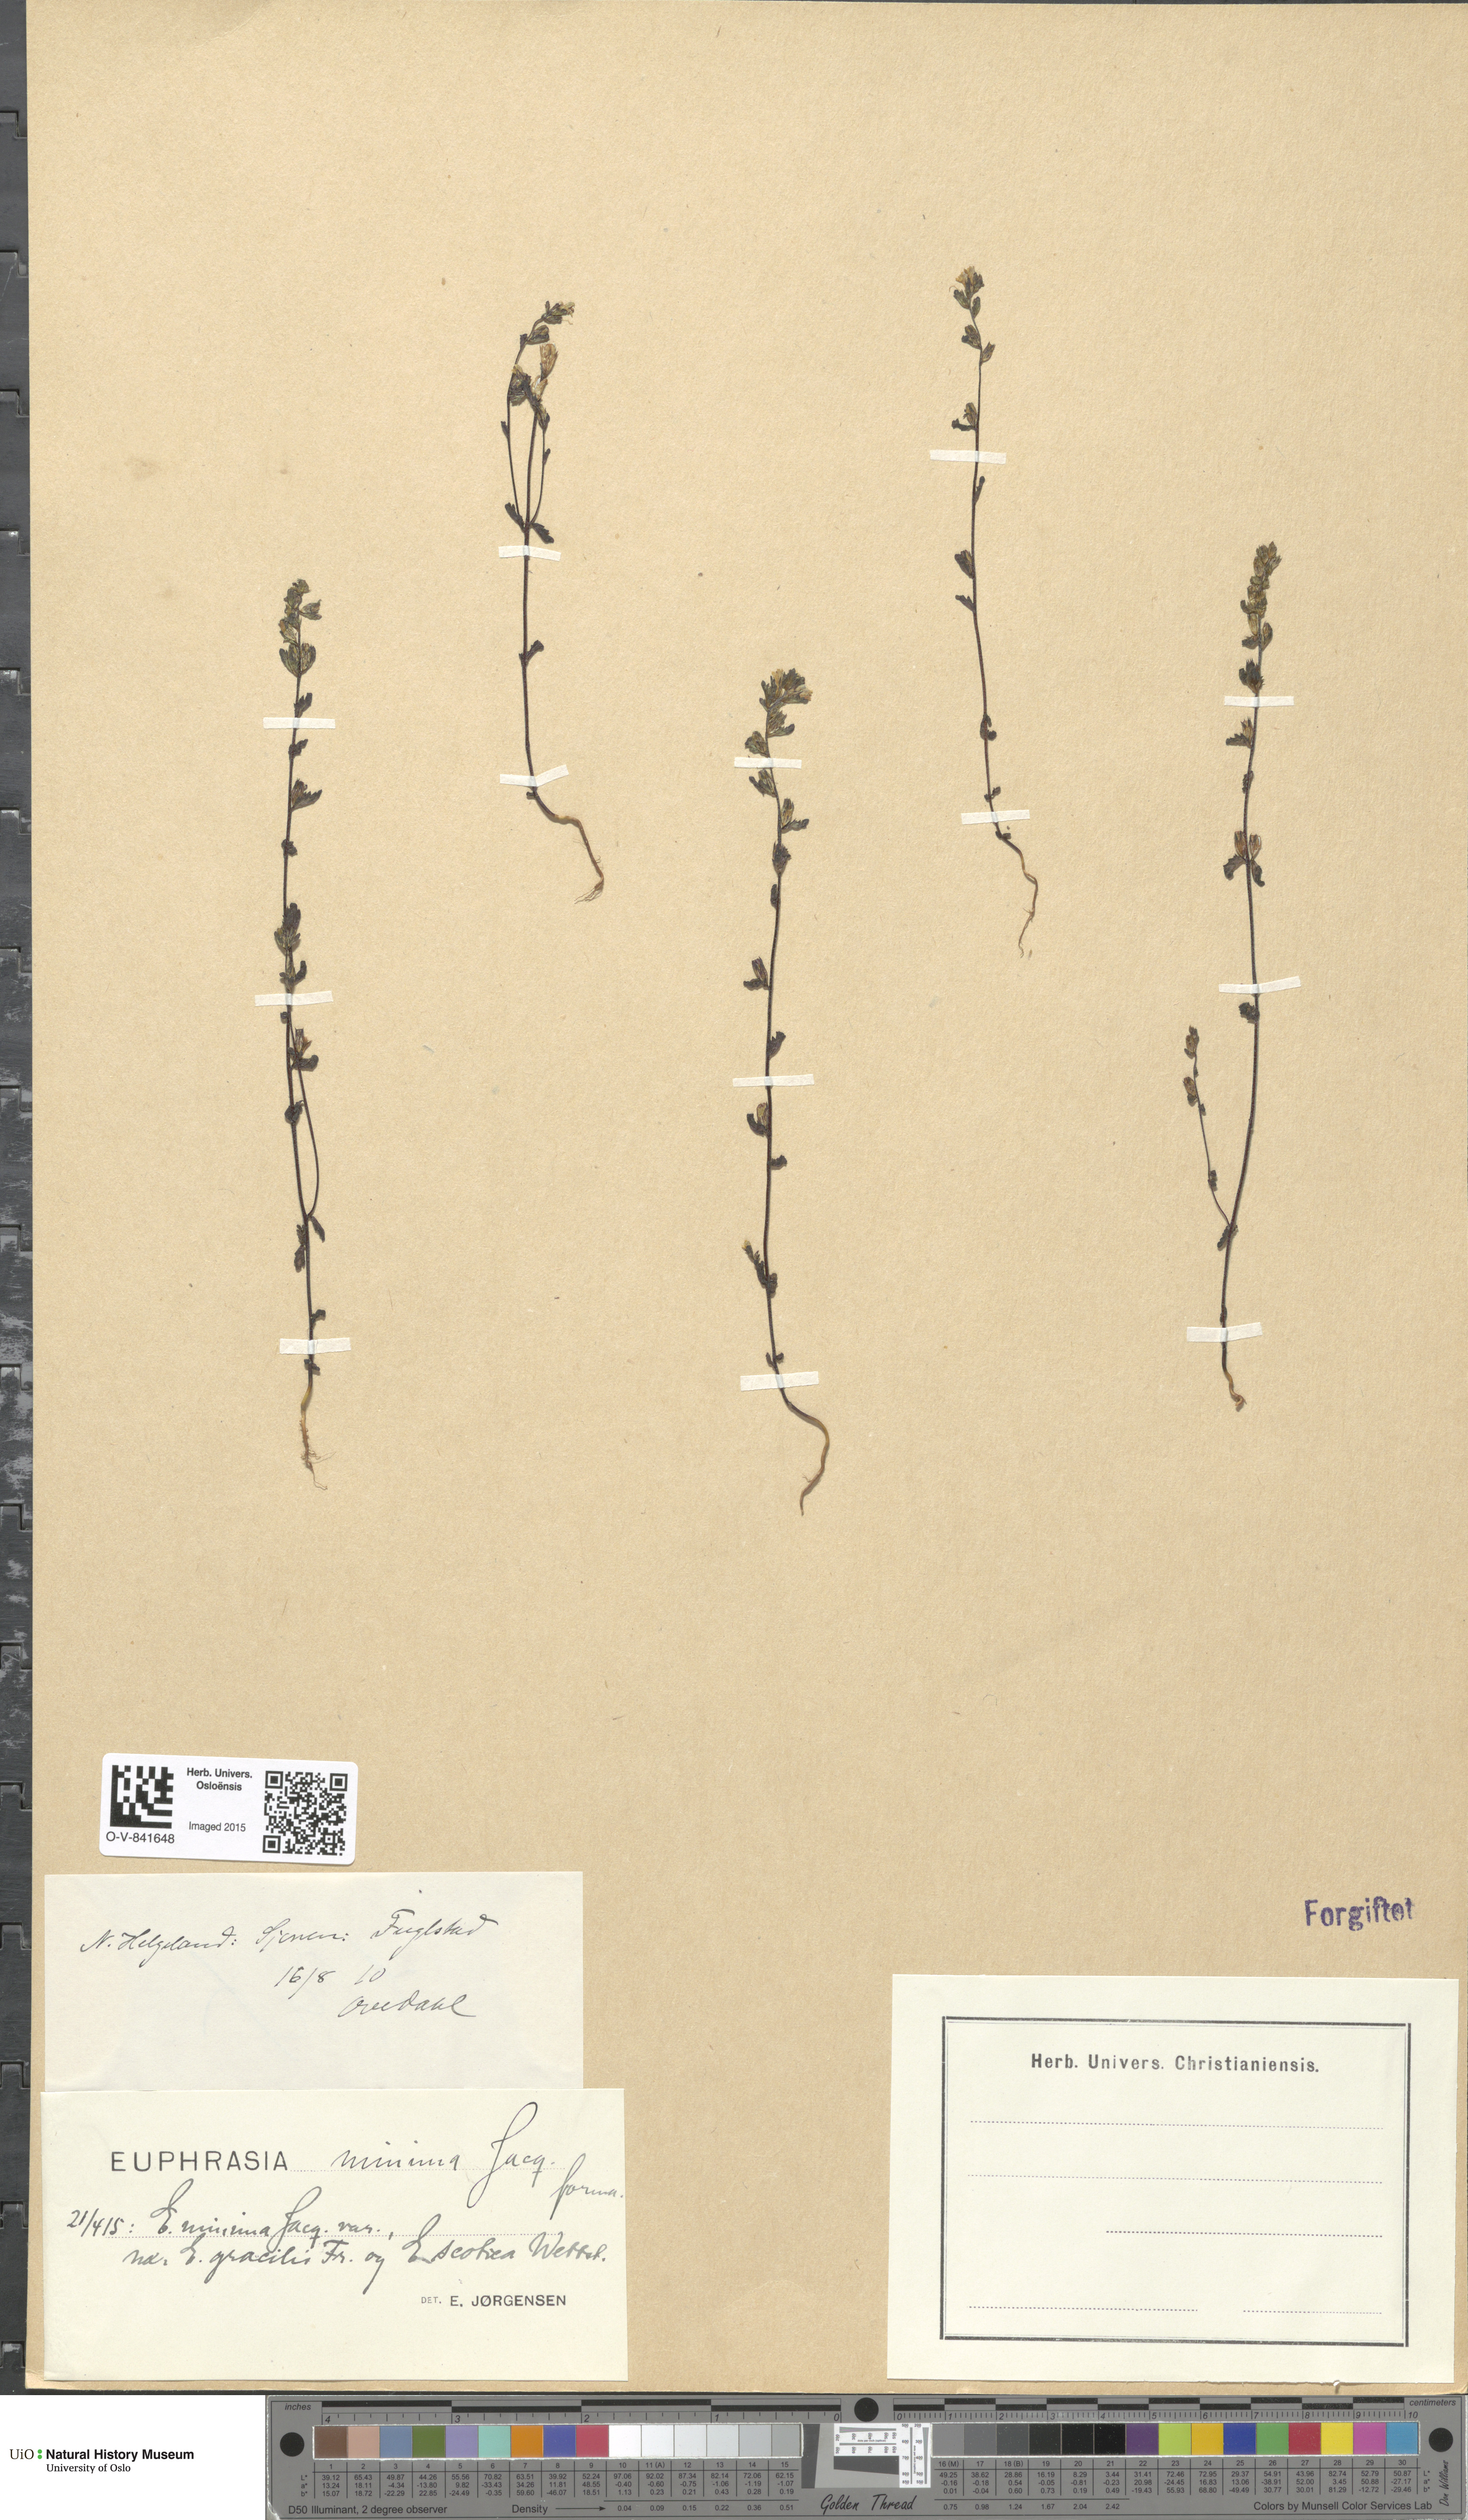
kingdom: Plantae
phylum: Tracheophyta
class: Magnoliopsida
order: Lamiales
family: Orobanchaceae
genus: Euphrasia
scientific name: Euphrasia wettsteinii
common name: Wettstein's eyebright
